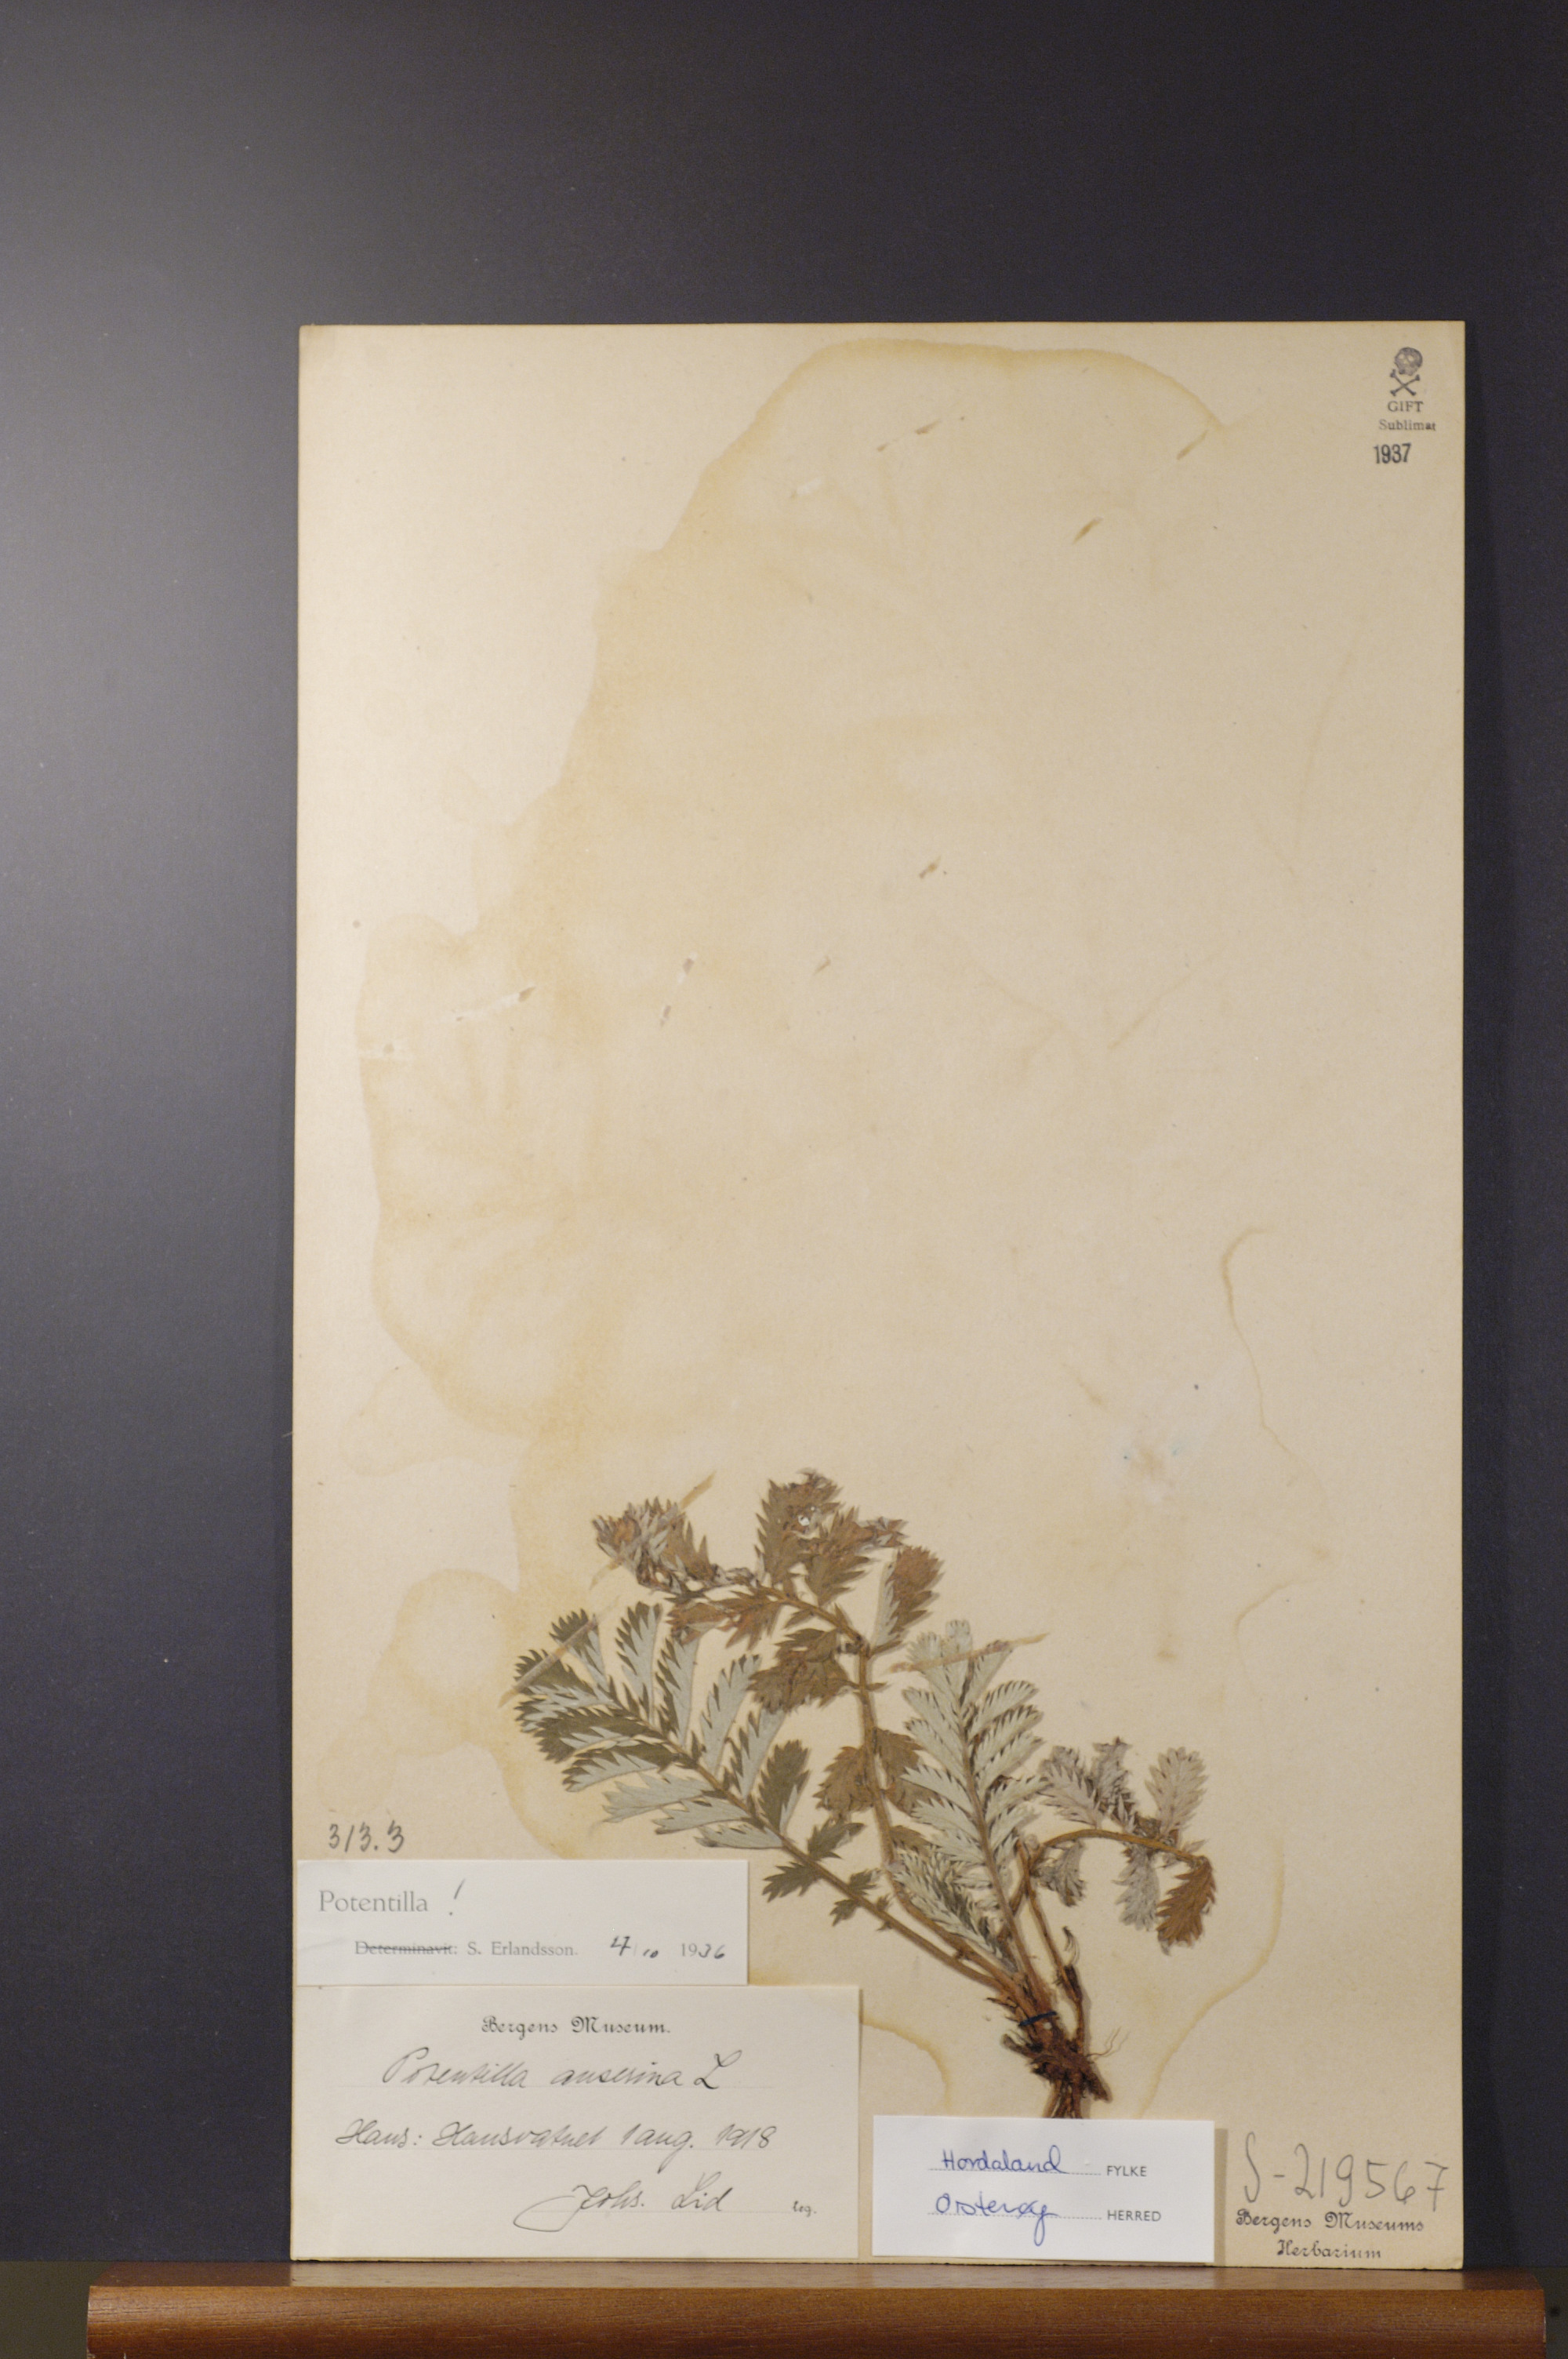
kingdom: Plantae
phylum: Tracheophyta
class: Magnoliopsida
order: Rosales
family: Rosaceae
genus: Argentina
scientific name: Argentina anserina
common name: Common silverweed
